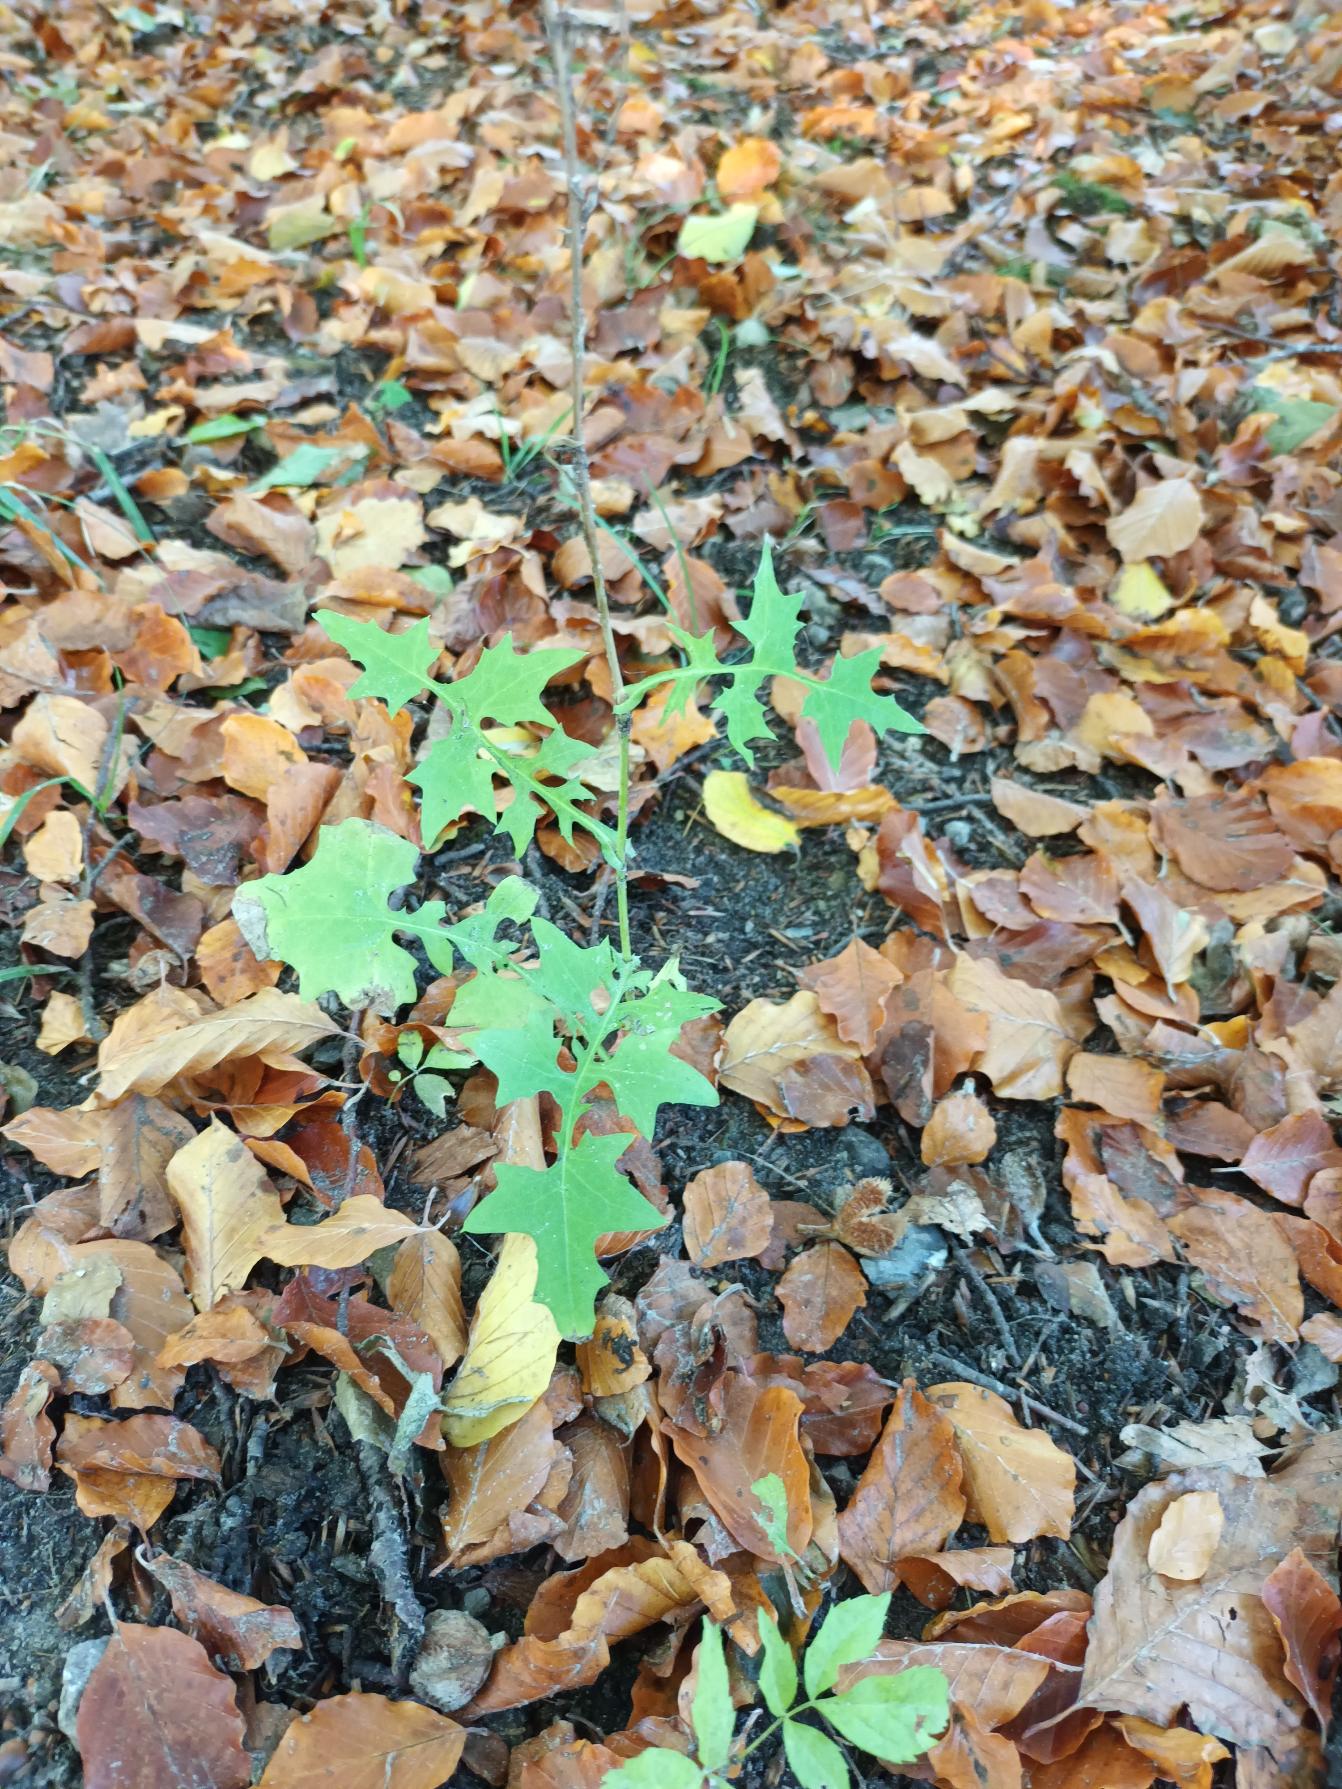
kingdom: Plantae
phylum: Tracheophyta
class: Magnoliopsida
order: Asterales
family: Asteraceae
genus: Mycelis
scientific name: Mycelis muralis
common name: Skov-salat
